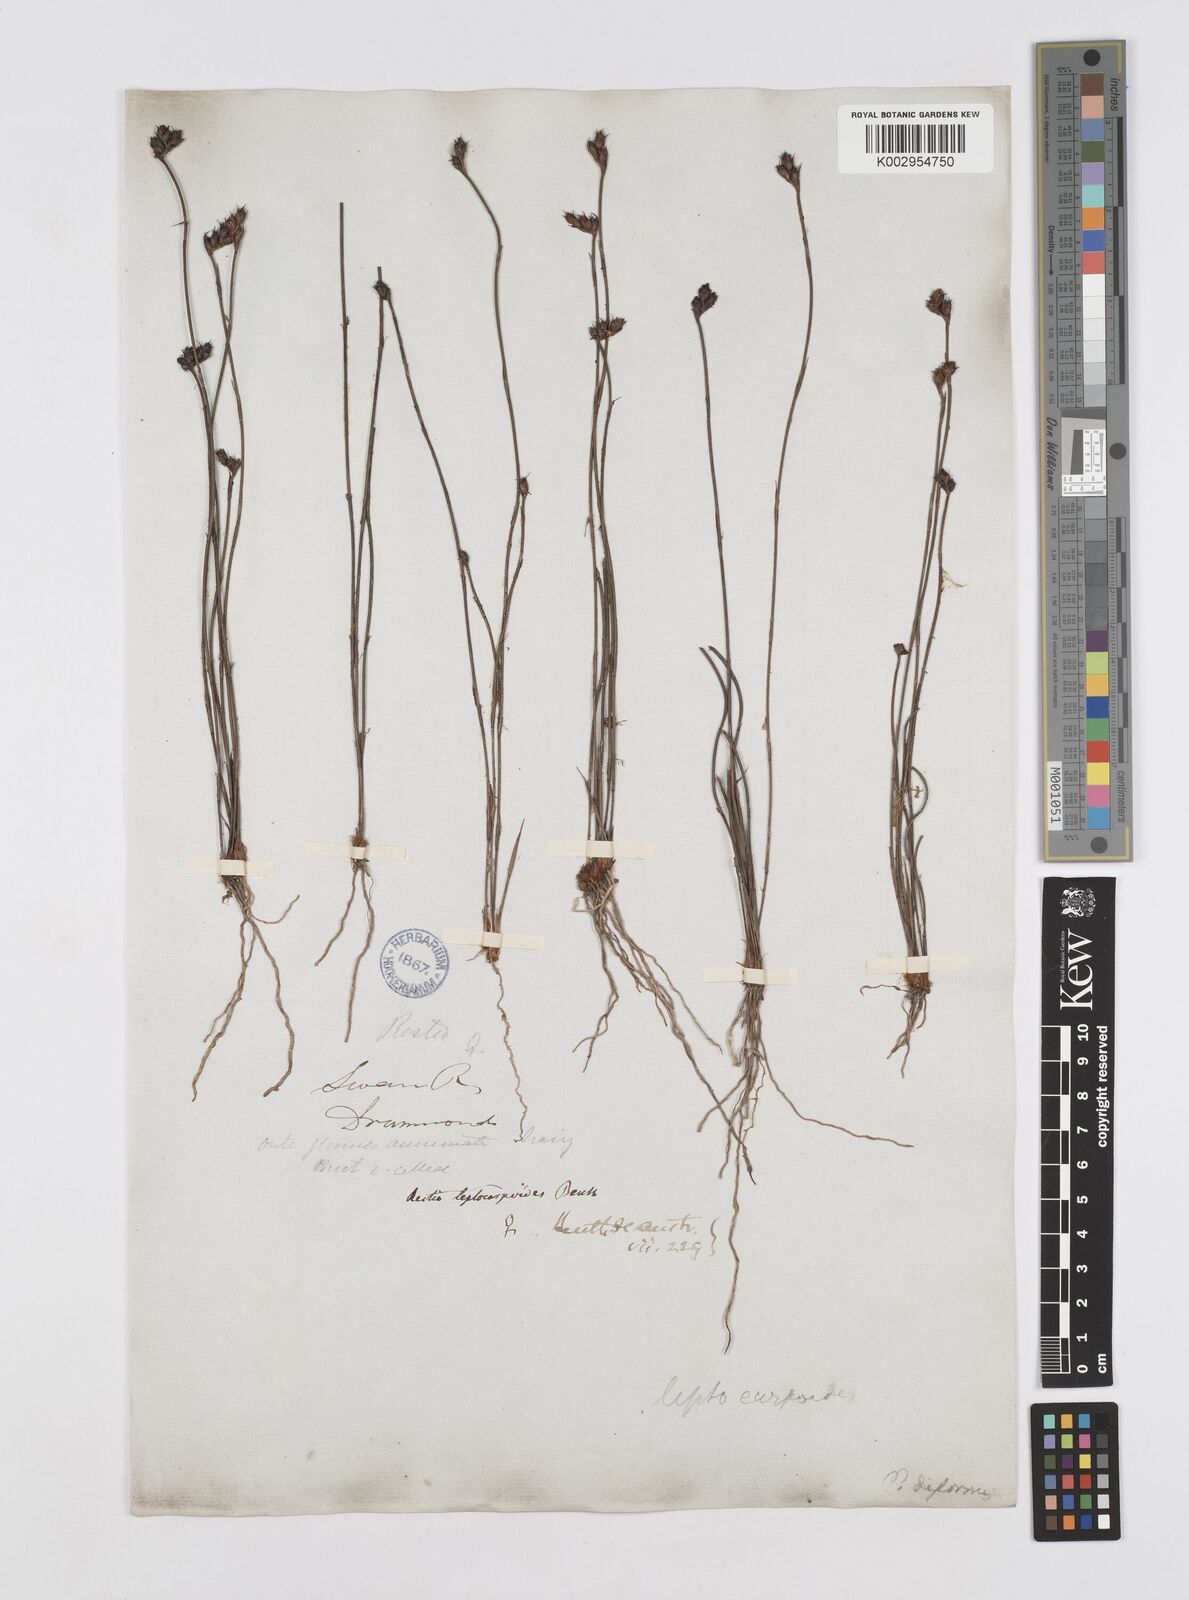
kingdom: Plantae
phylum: Tracheophyta
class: Liliopsida
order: Poales
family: Restionaceae
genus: Cytogonidium
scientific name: Cytogonidium leptocarpoides
